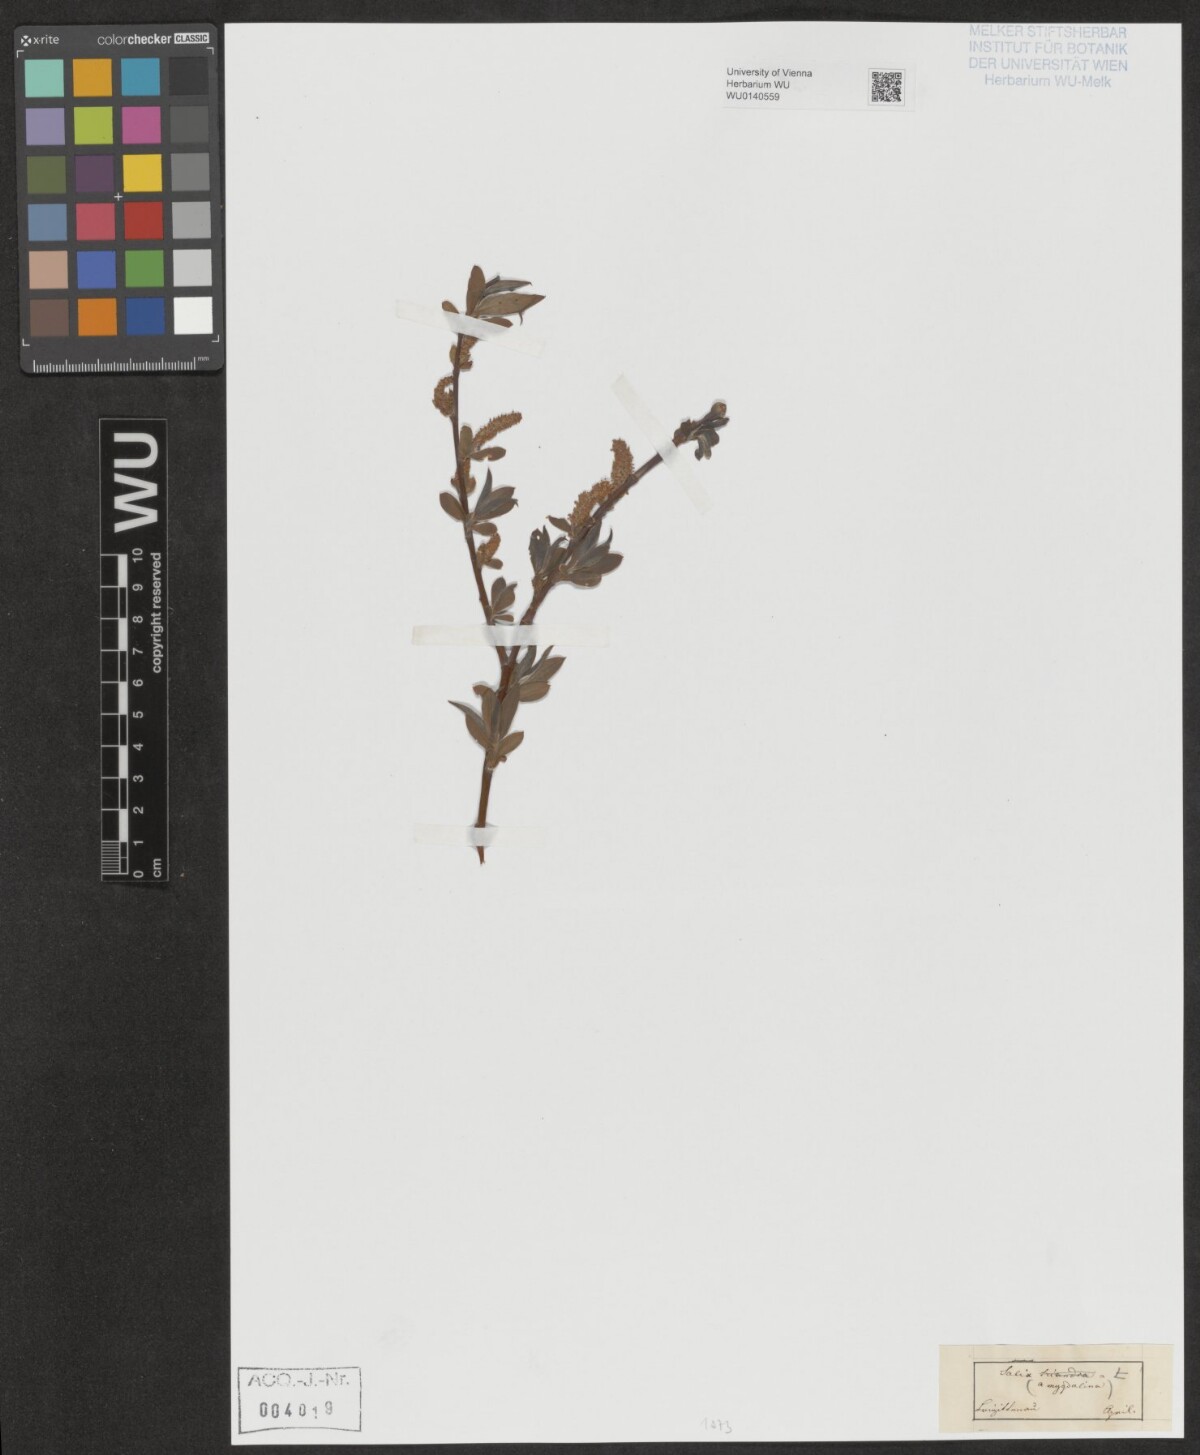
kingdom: Plantae
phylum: Tracheophyta
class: Magnoliopsida
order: Malpighiales
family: Salicaceae
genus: Salix
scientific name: Salix triandra
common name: Almond willow
